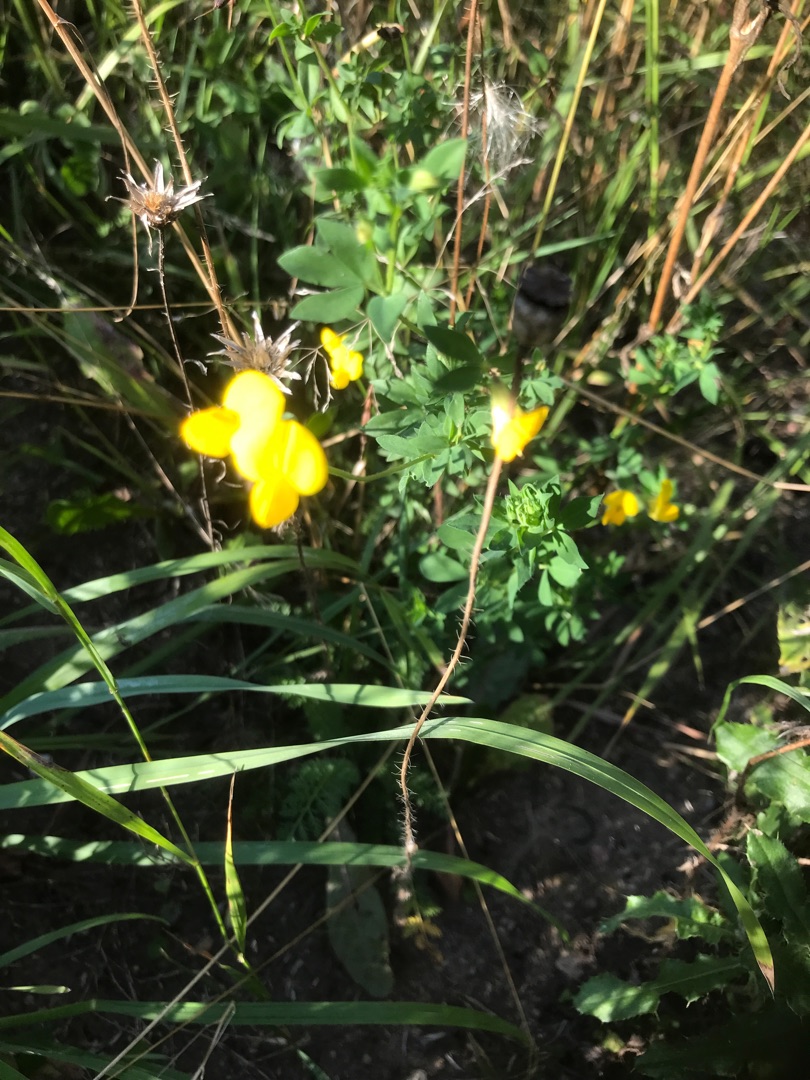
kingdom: Plantae
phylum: Tracheophyta
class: Magnoliopsida
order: Fabales
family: Fabaceae
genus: Lotus
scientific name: Lotus corniculatus
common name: Almindelig kællingetand
